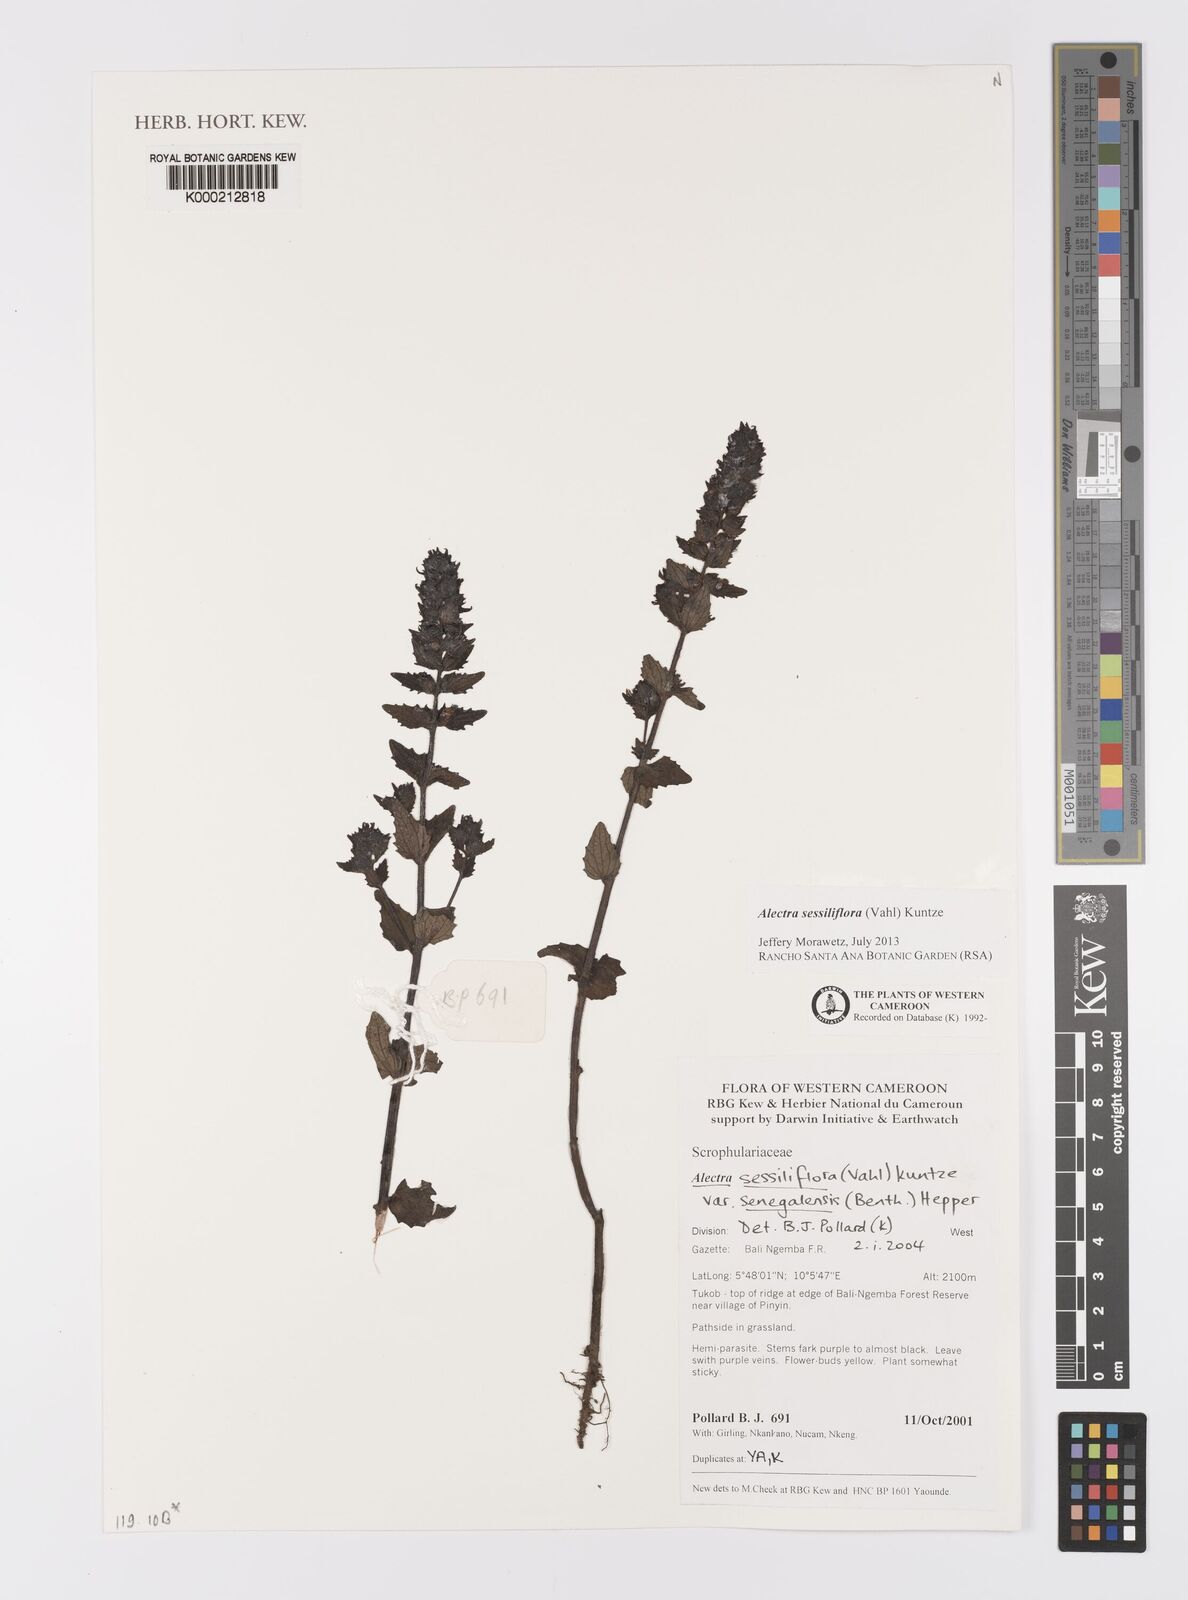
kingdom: Plantae
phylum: Tracheophyta
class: Magnoliopsida
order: Lamiales
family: Orobanchaceae
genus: Alectra
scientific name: Alectra sessiliflora
